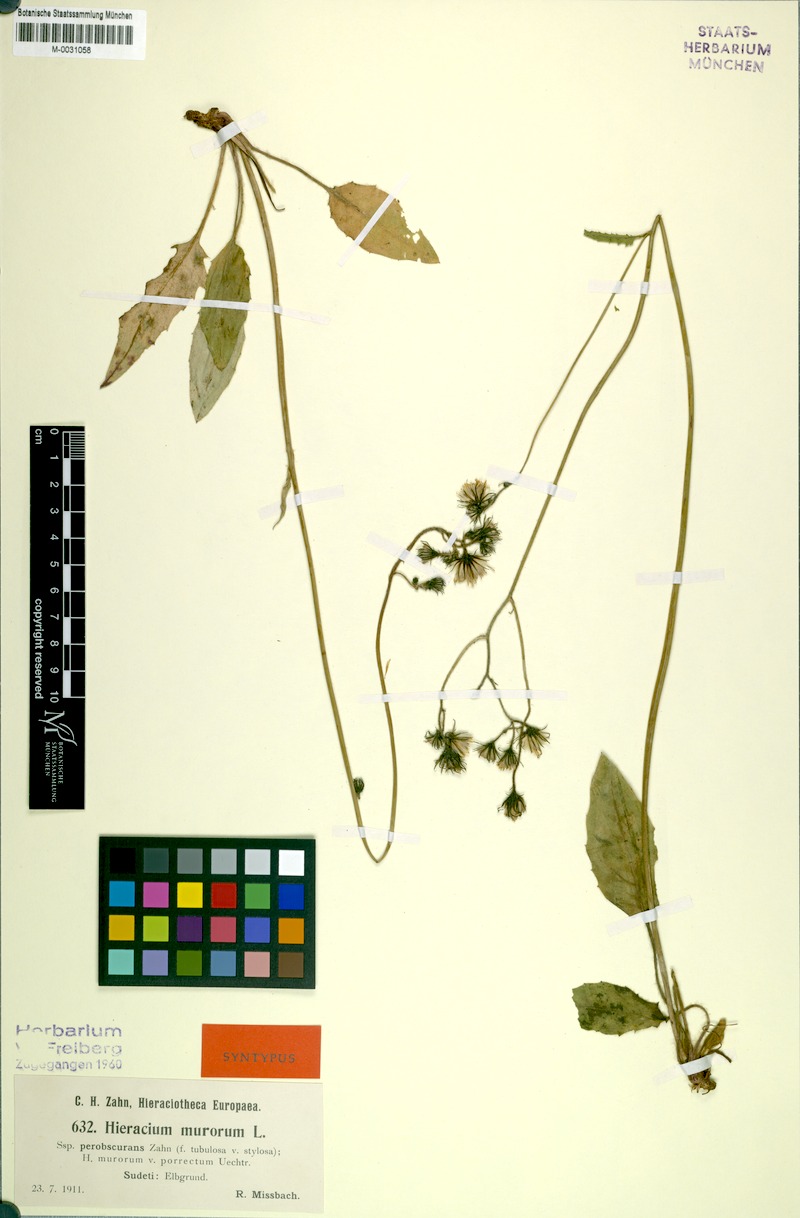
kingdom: Plantae
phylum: Tracheophyta
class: Magnoliopsida
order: Asterales
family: Asteraceae
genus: Hieracium
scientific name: Hieracium murorum
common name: Wall hawkweed
